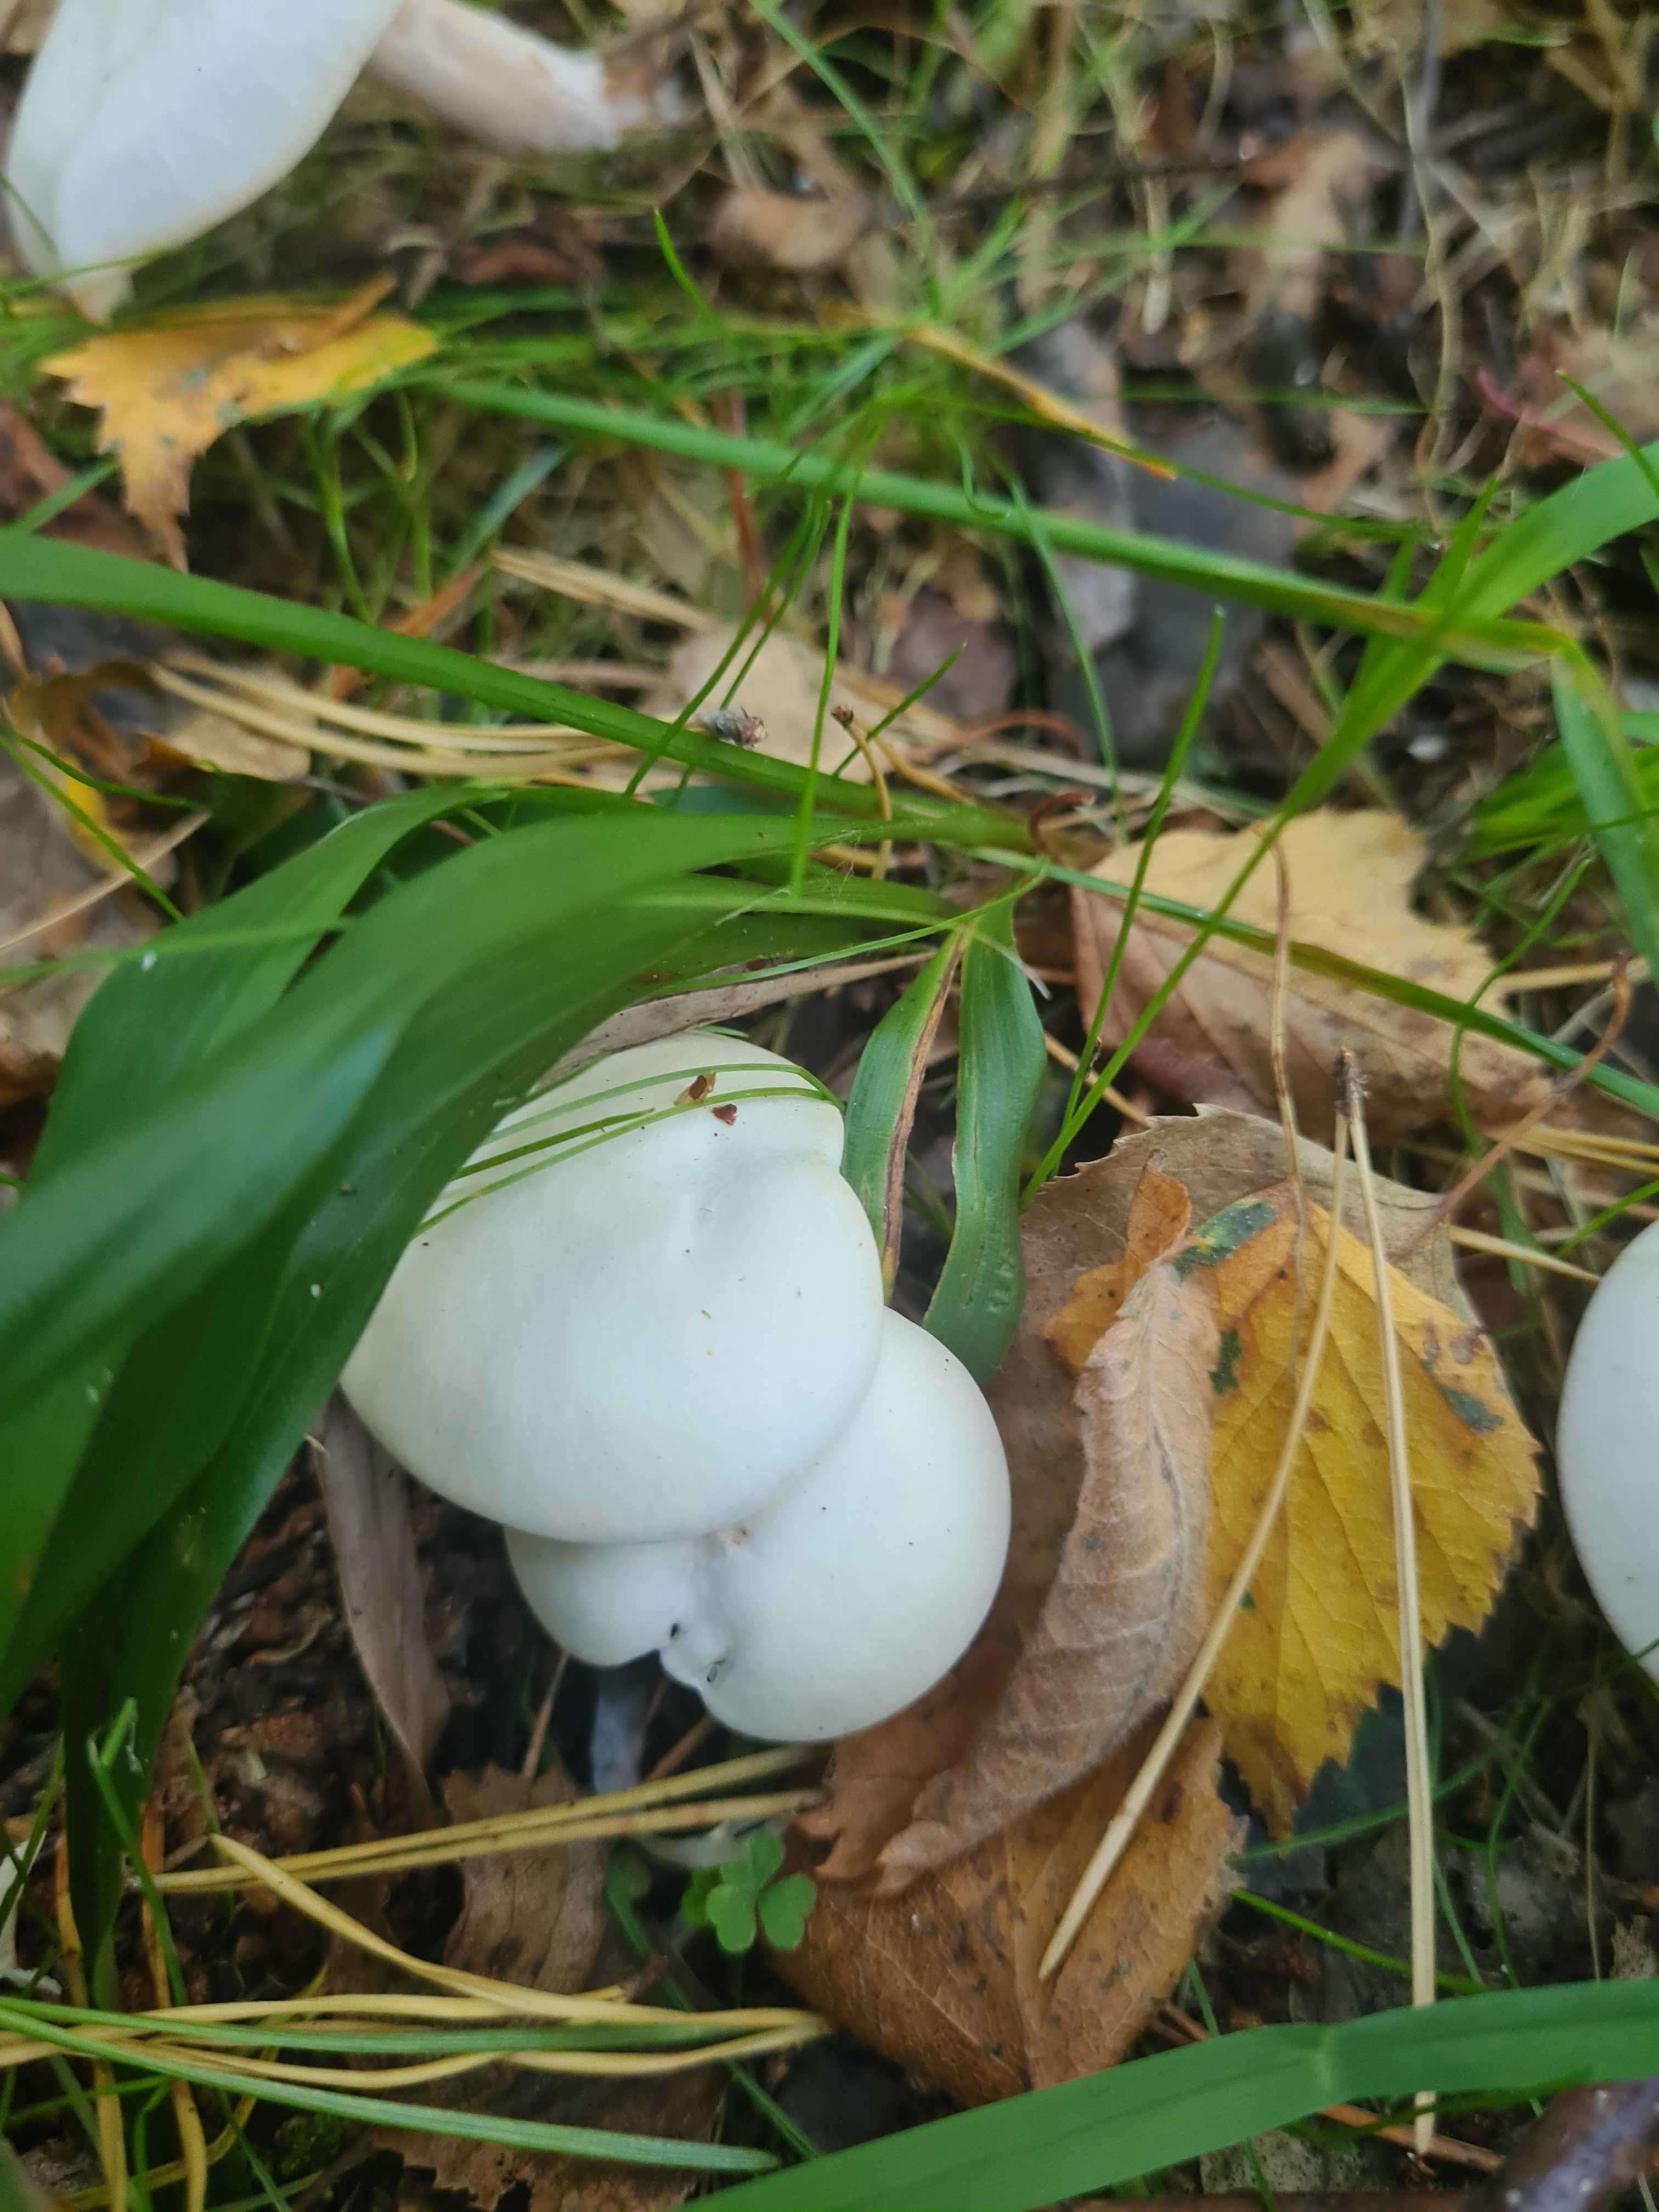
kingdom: Fungi
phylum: Basidiomycota
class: Agaricomycetes
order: Agaricales
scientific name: Agaricales
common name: champignonordenen
